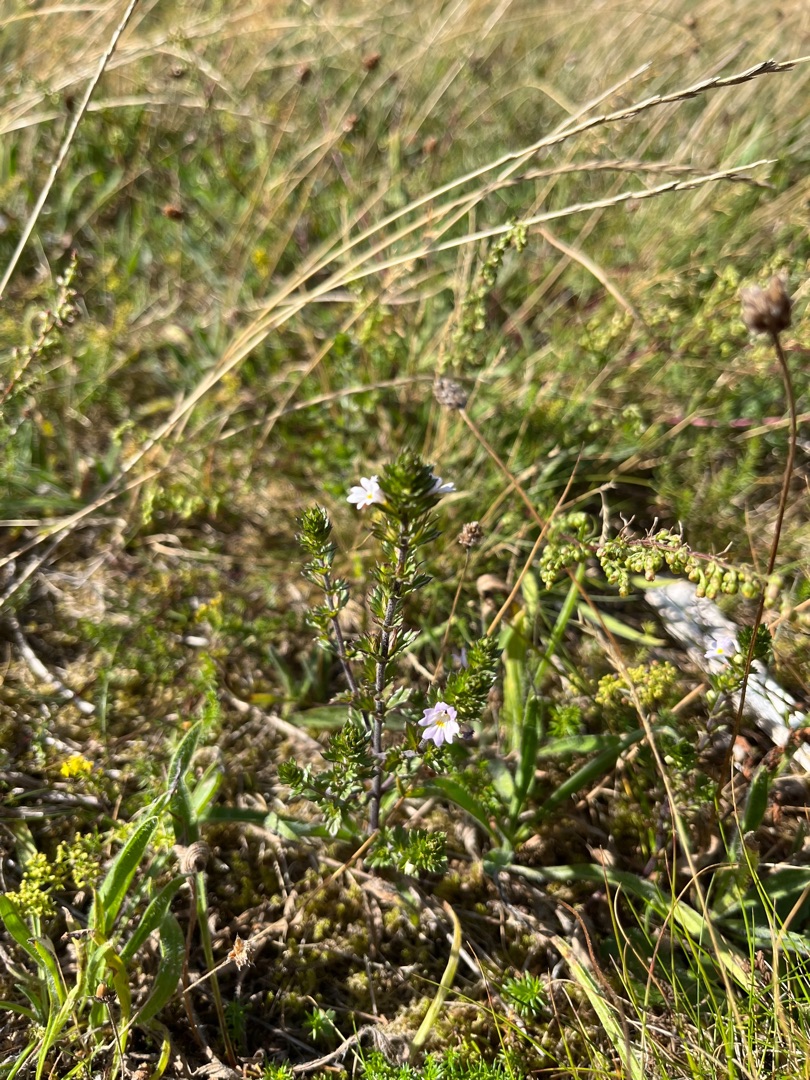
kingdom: Plantae
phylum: Tracheophyta
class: Magnoliopsida
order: Lamiales
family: Orobanchaceae
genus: Euphrasia
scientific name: Euphrasia stricta
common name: Spids øjentrøst
